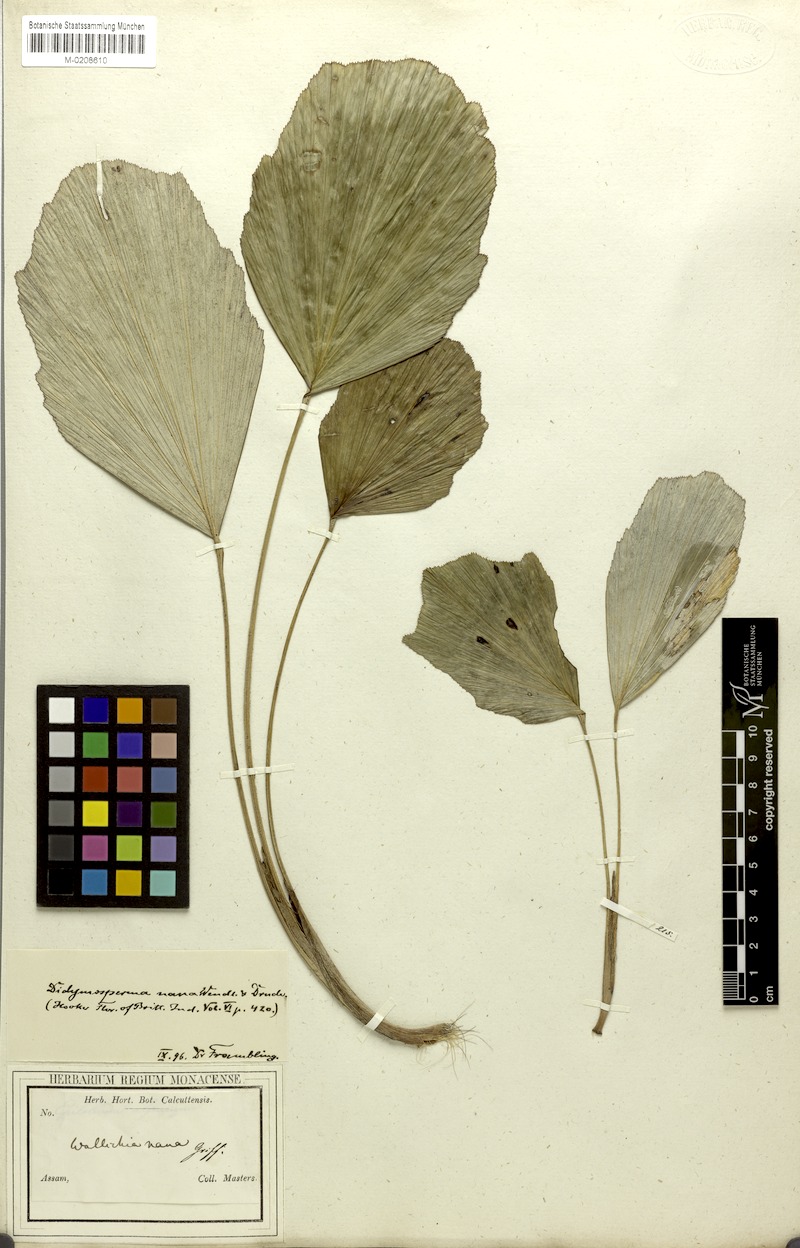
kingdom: Plantae
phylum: Tracheophyta
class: Liliopsida
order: Arecales
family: Arecaceae
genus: Wallichia
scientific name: Wallichia nana
